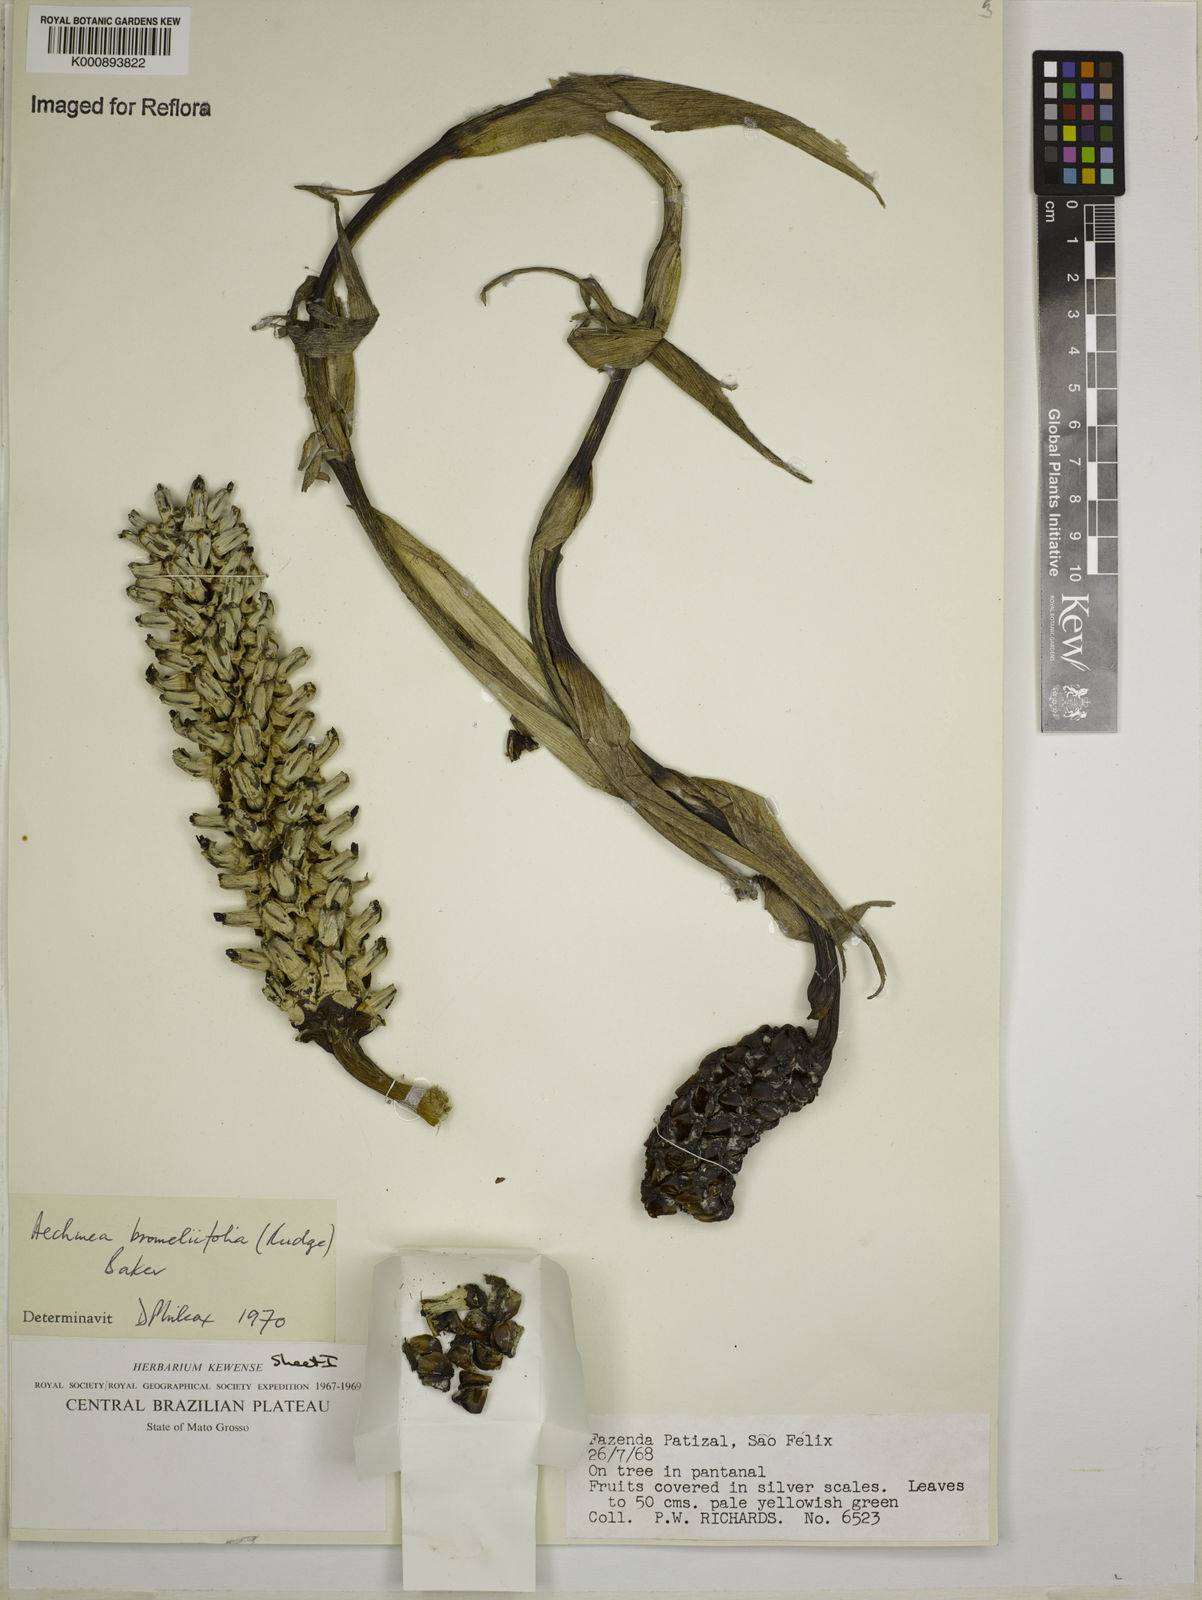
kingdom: Plantae
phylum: Tracheophyta
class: Liliopsida
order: Poales
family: Bromeliaceae
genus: Aechmea
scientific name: Aechmea
